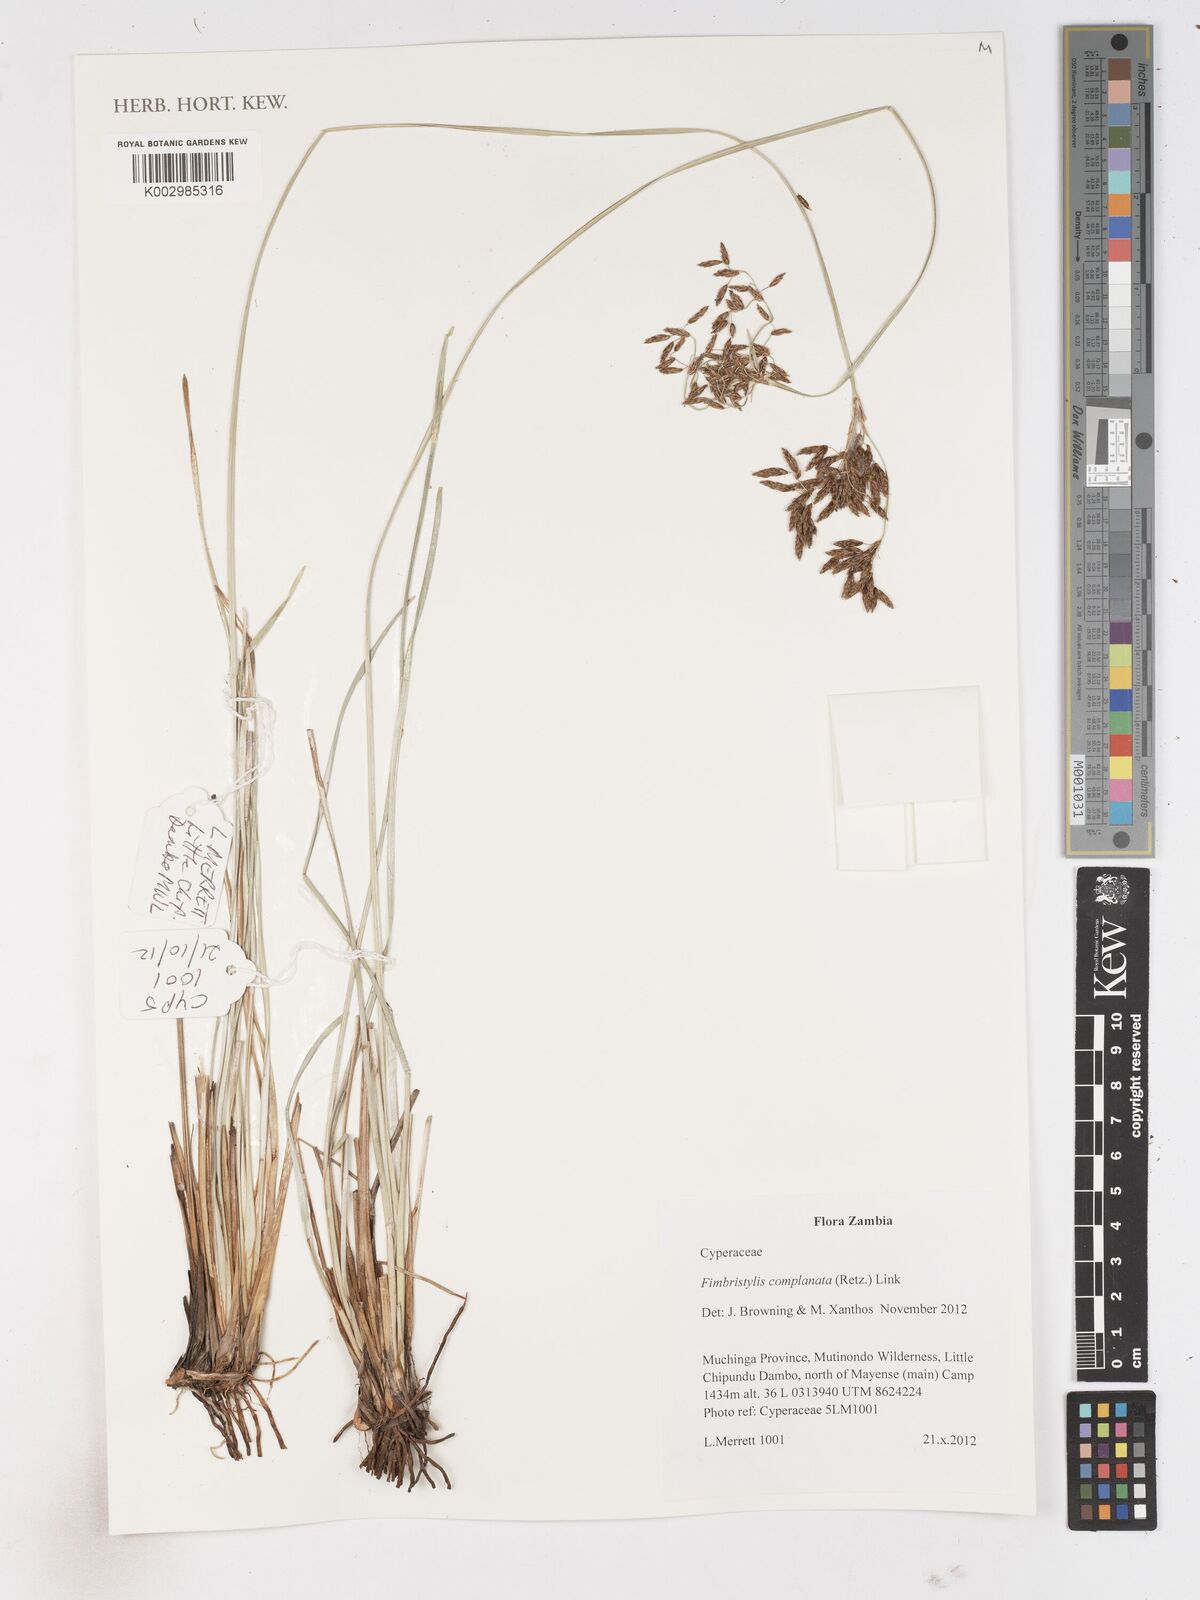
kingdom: Plantae
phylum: Tracheophyta
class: Liliopsida
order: Poales
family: Cyperaceae
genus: Fimbristylis
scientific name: Fimbristylis complanata
